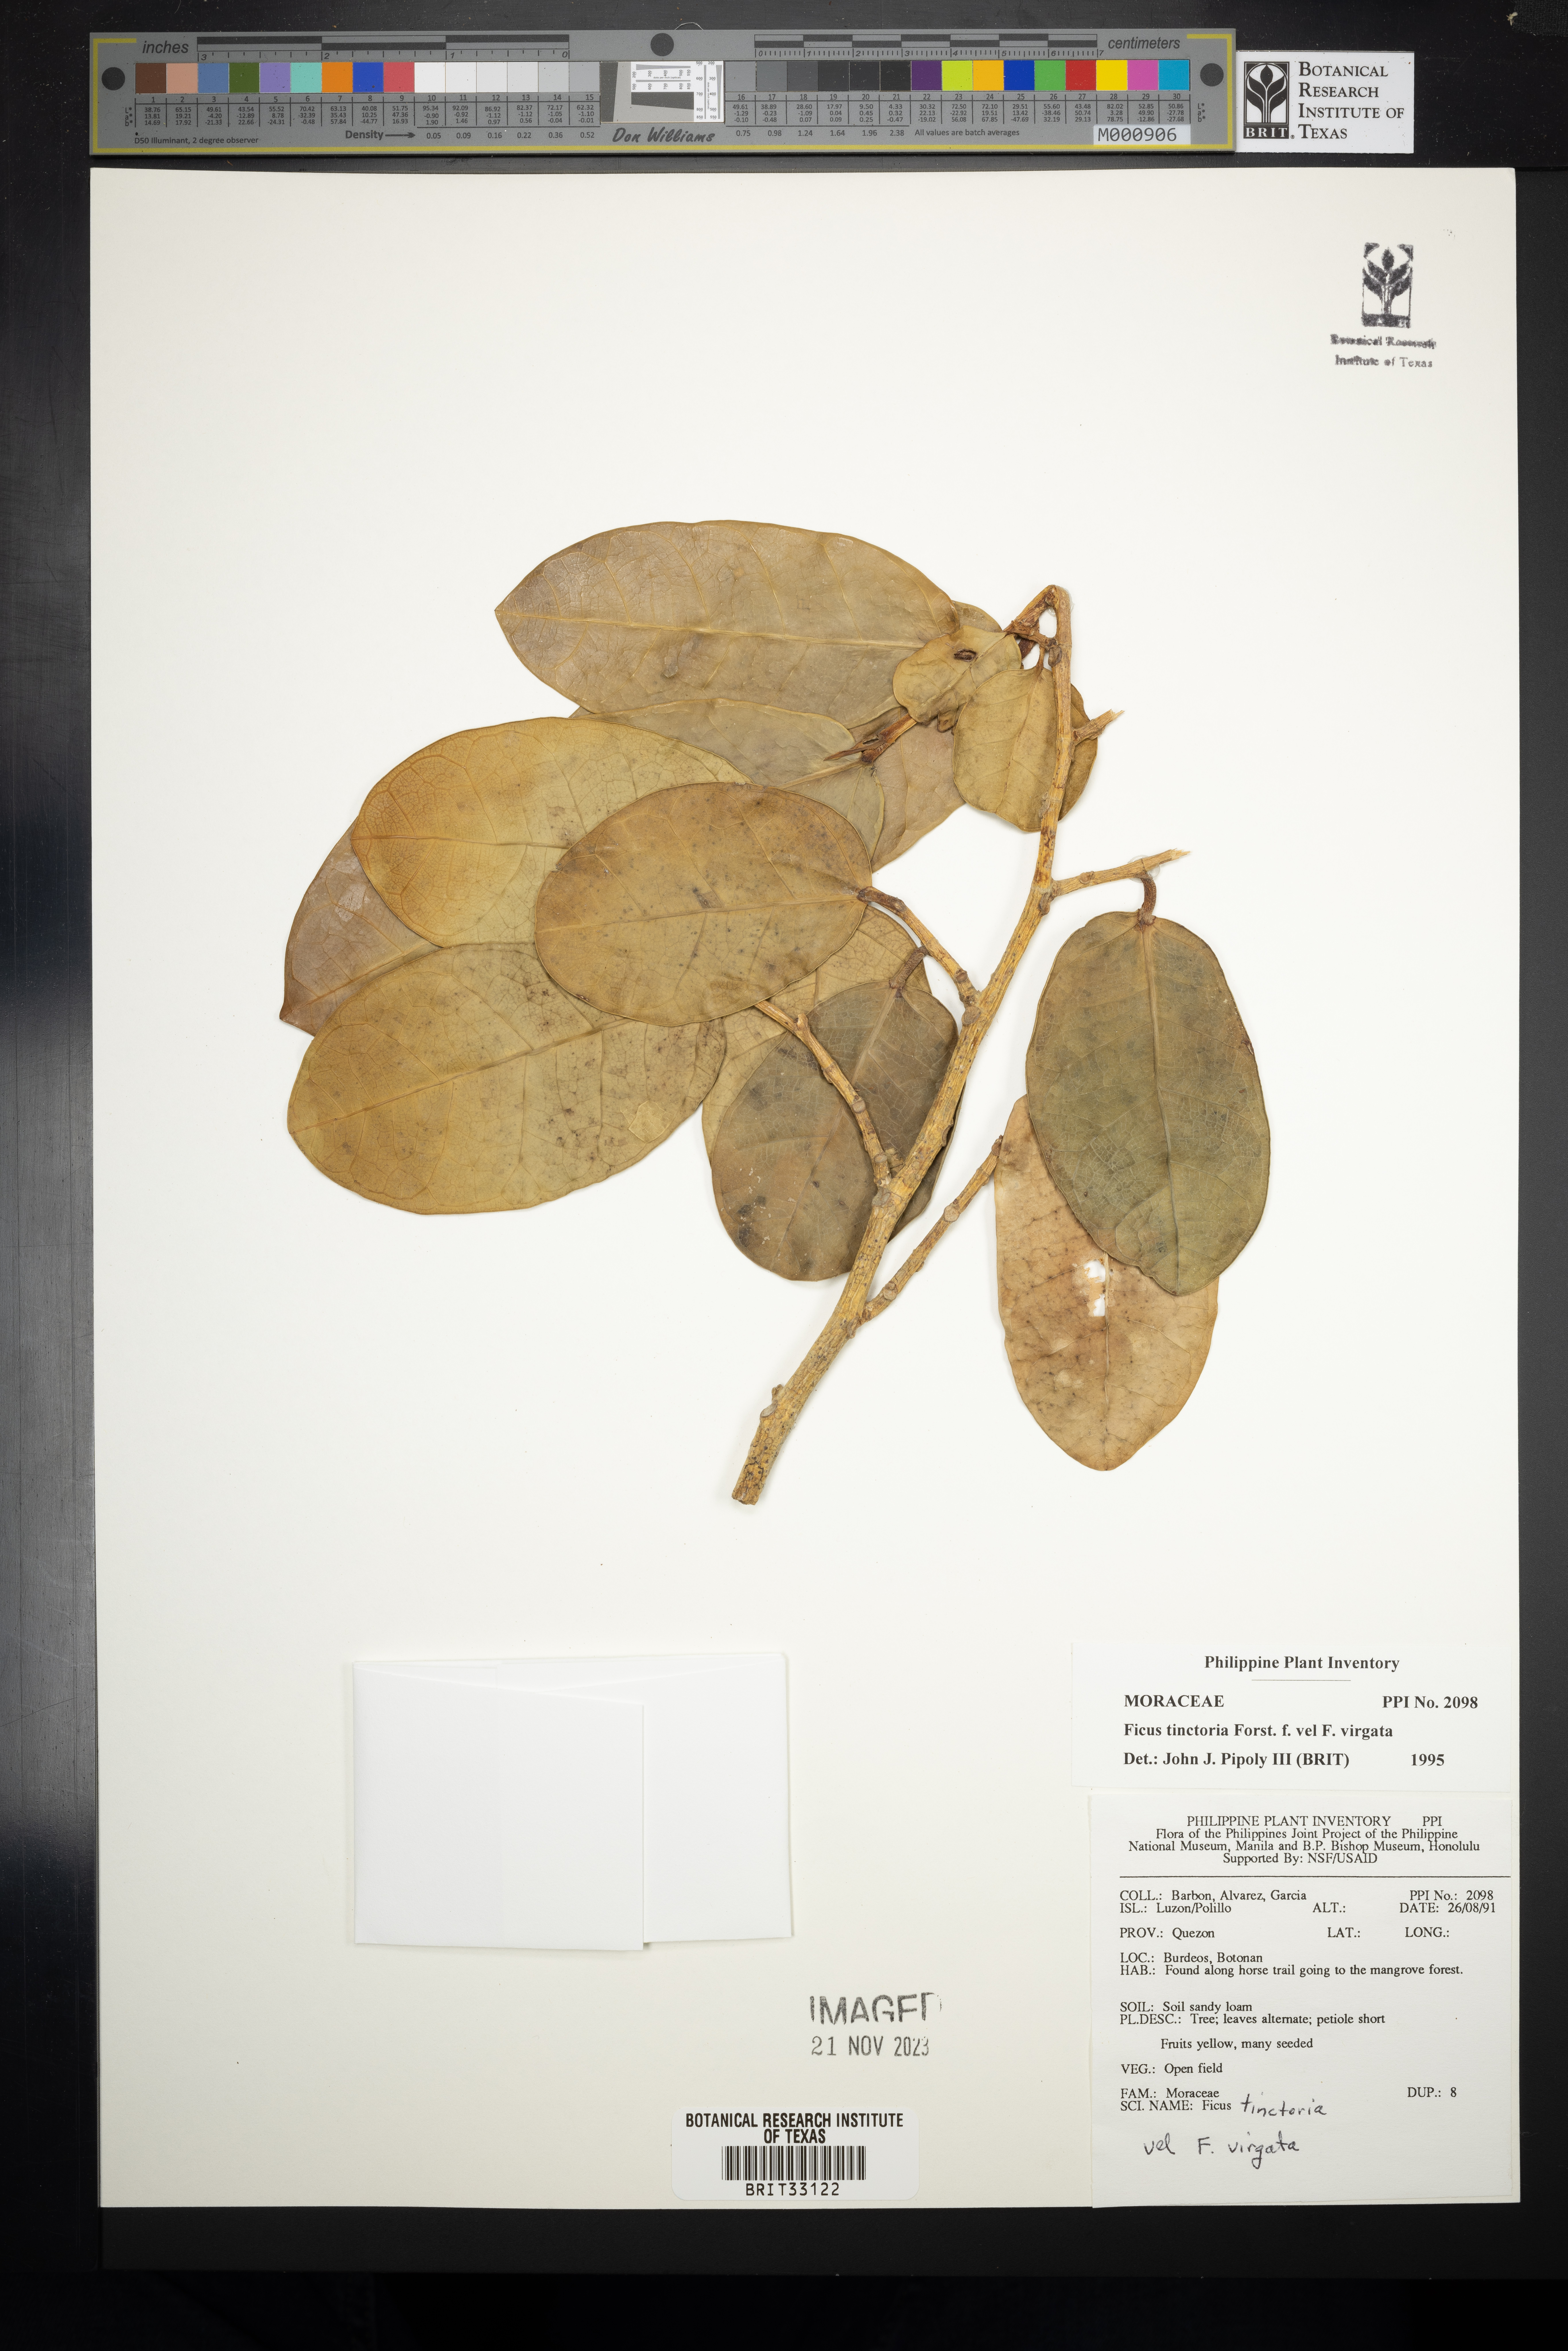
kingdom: Plantae
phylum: Tracheophyta
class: Magnoliopsida
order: Rosales
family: Moraceae
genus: Ficus
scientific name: Ficus
